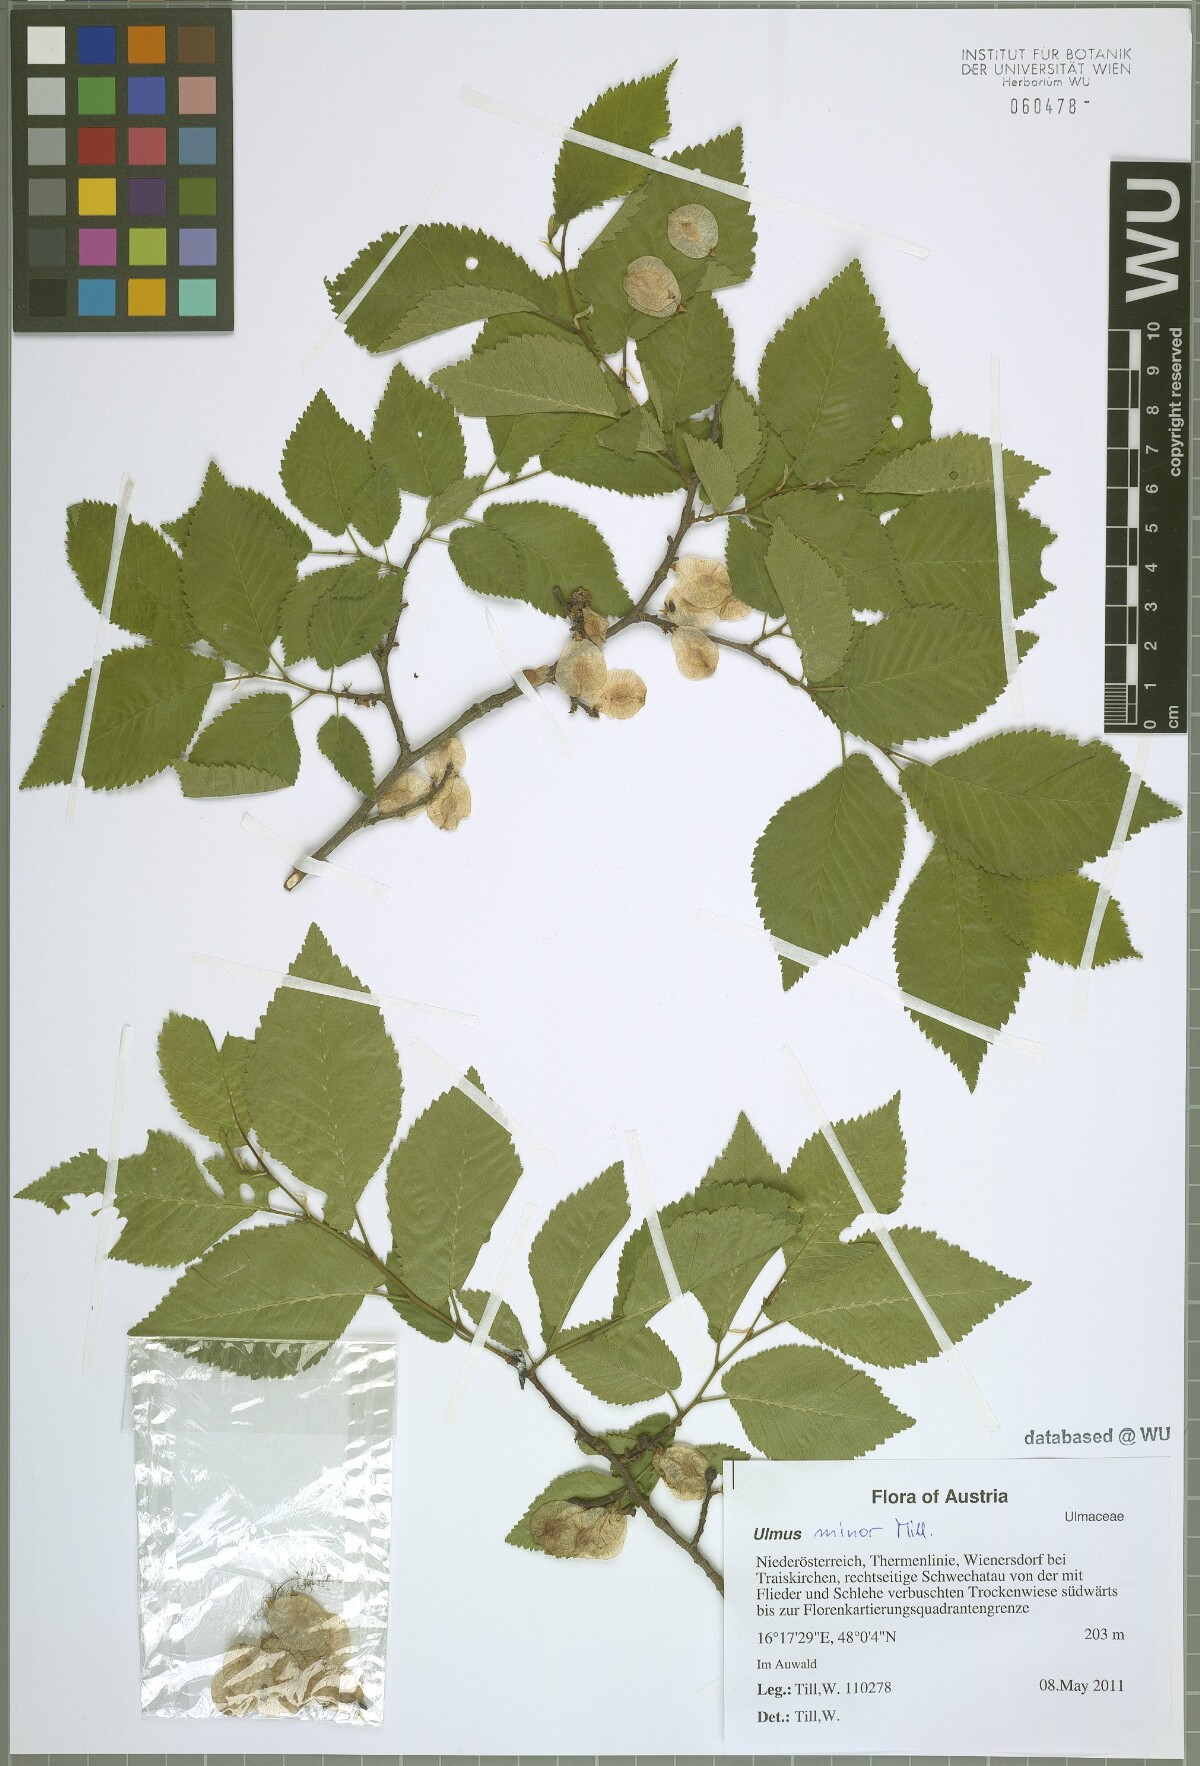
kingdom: Plantae
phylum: Tracheophyta
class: Magnoliopsida
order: Rosales
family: Ulmaceae
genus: Ulmus
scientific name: Ulmus minor
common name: Small-leaved elm
